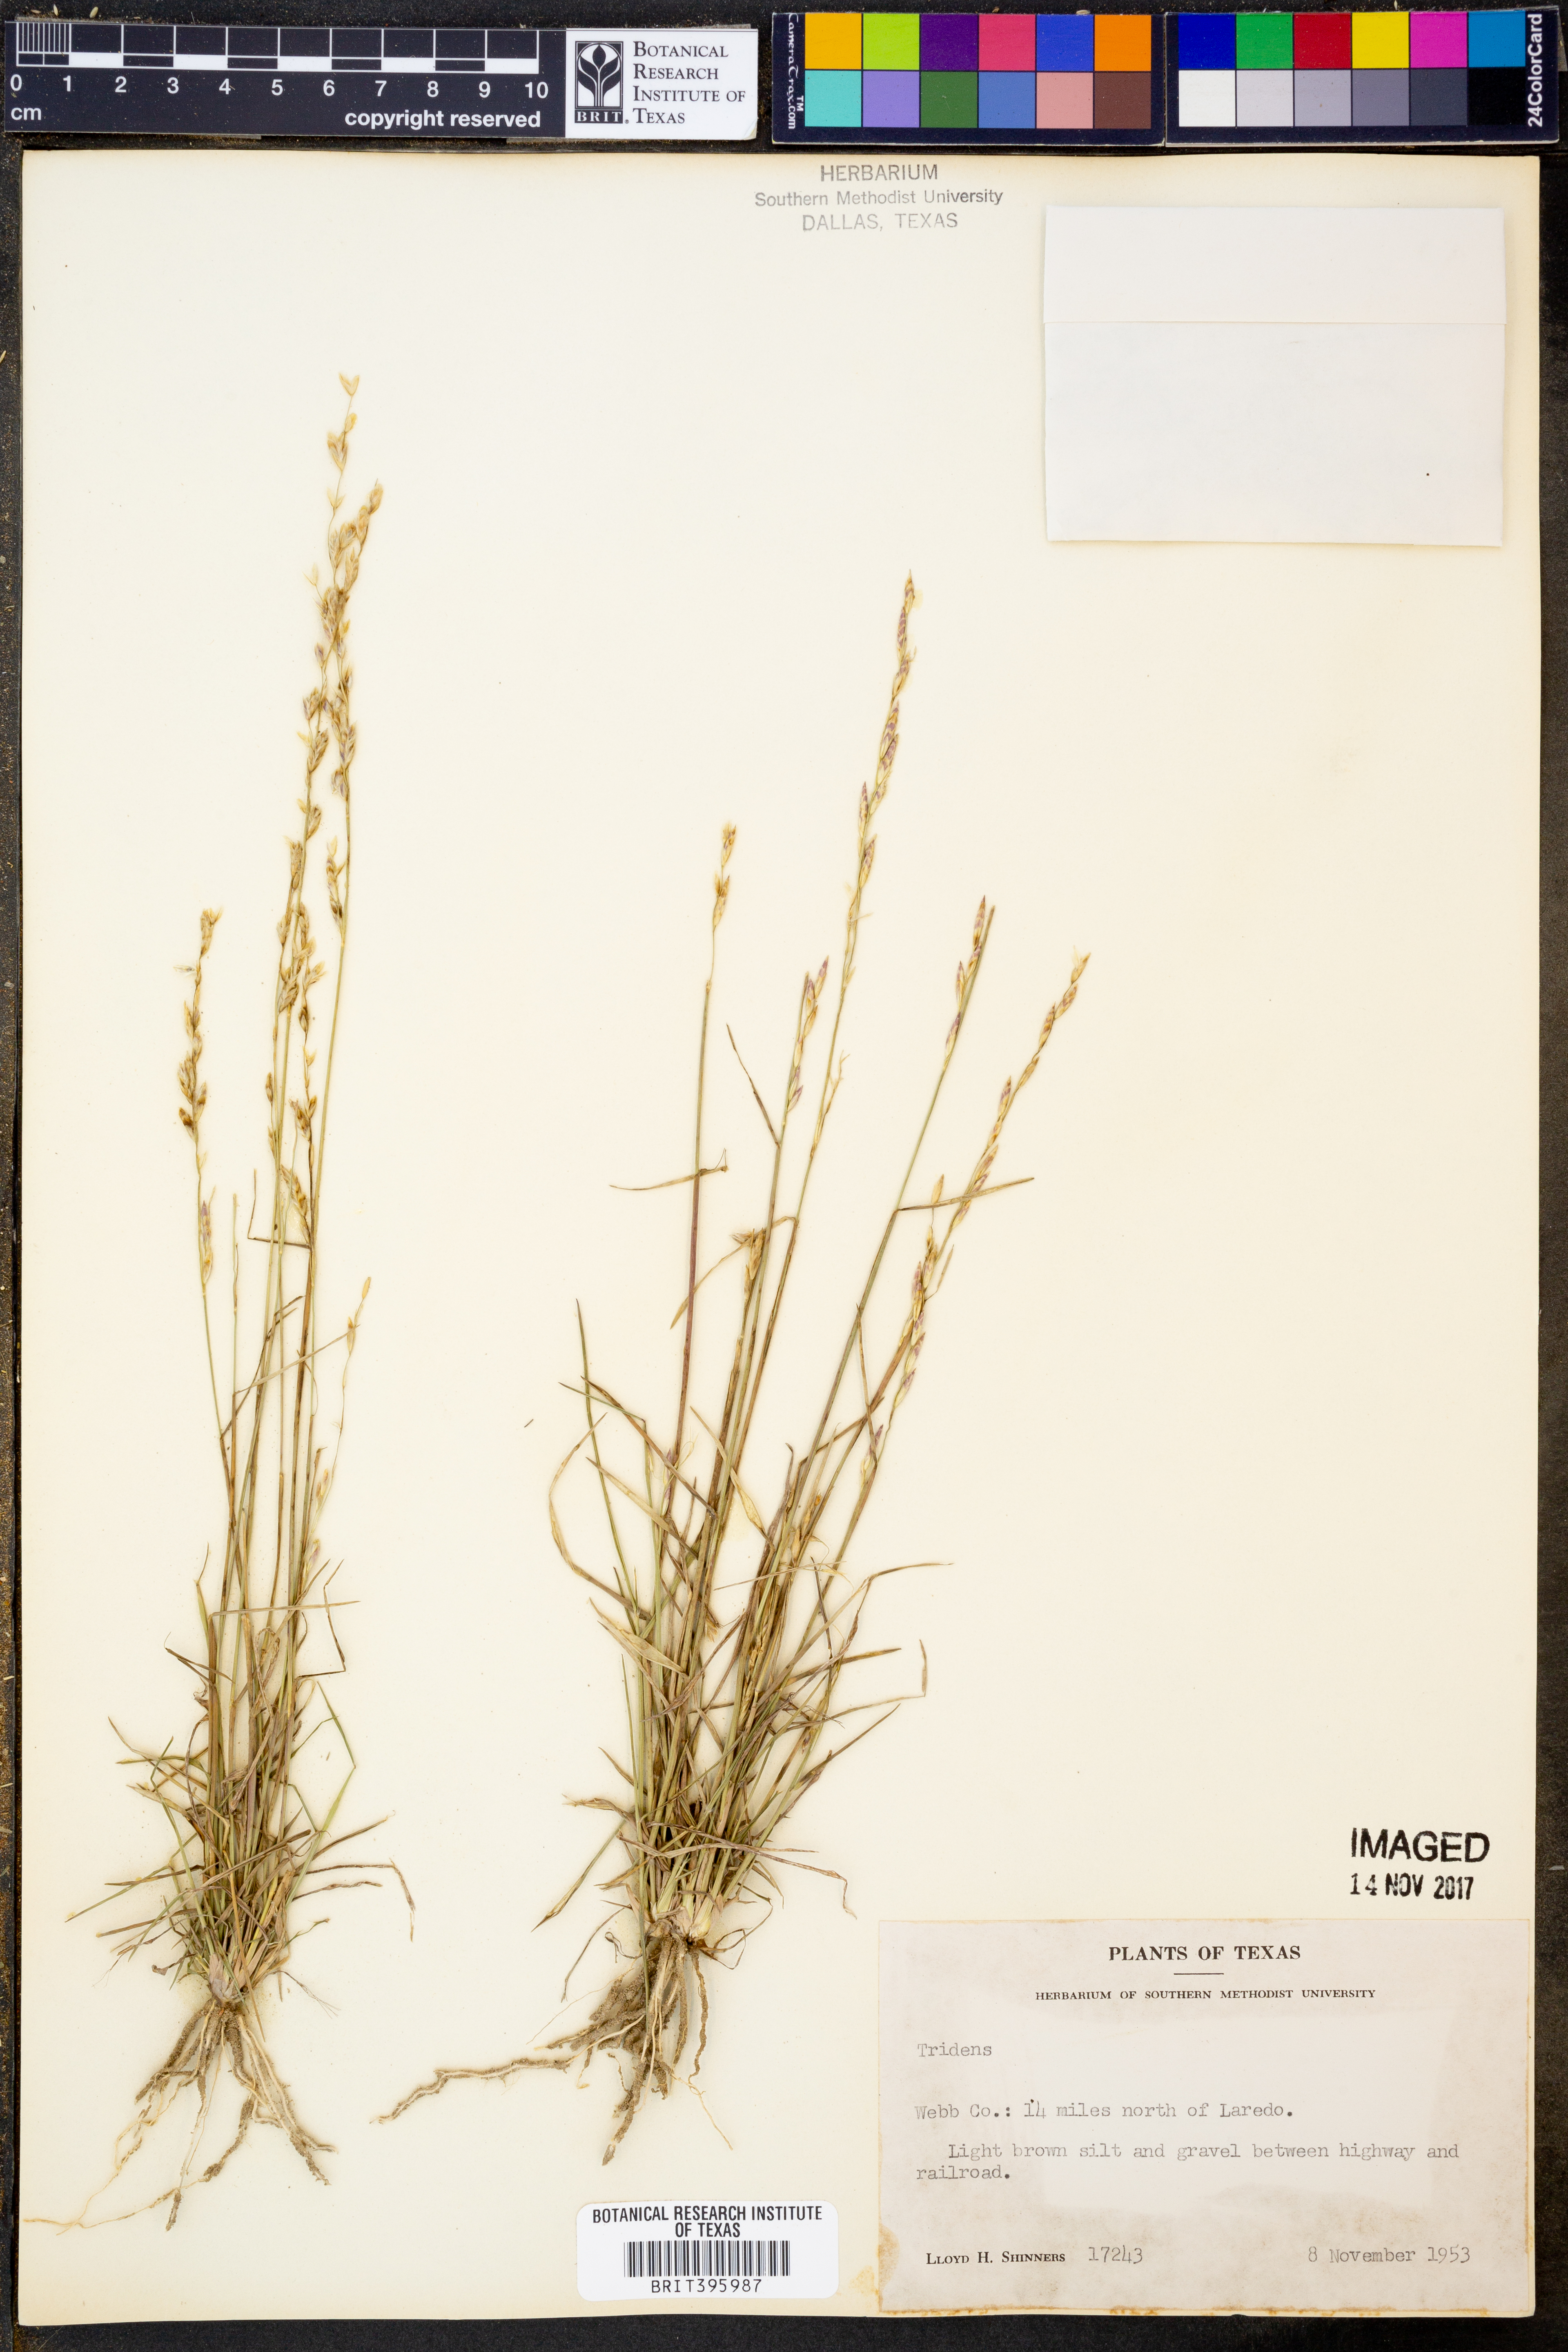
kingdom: Plantae
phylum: Tracheophyta
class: Liliopsida
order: Poales
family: Poaceae
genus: Tridens
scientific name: Tridens
